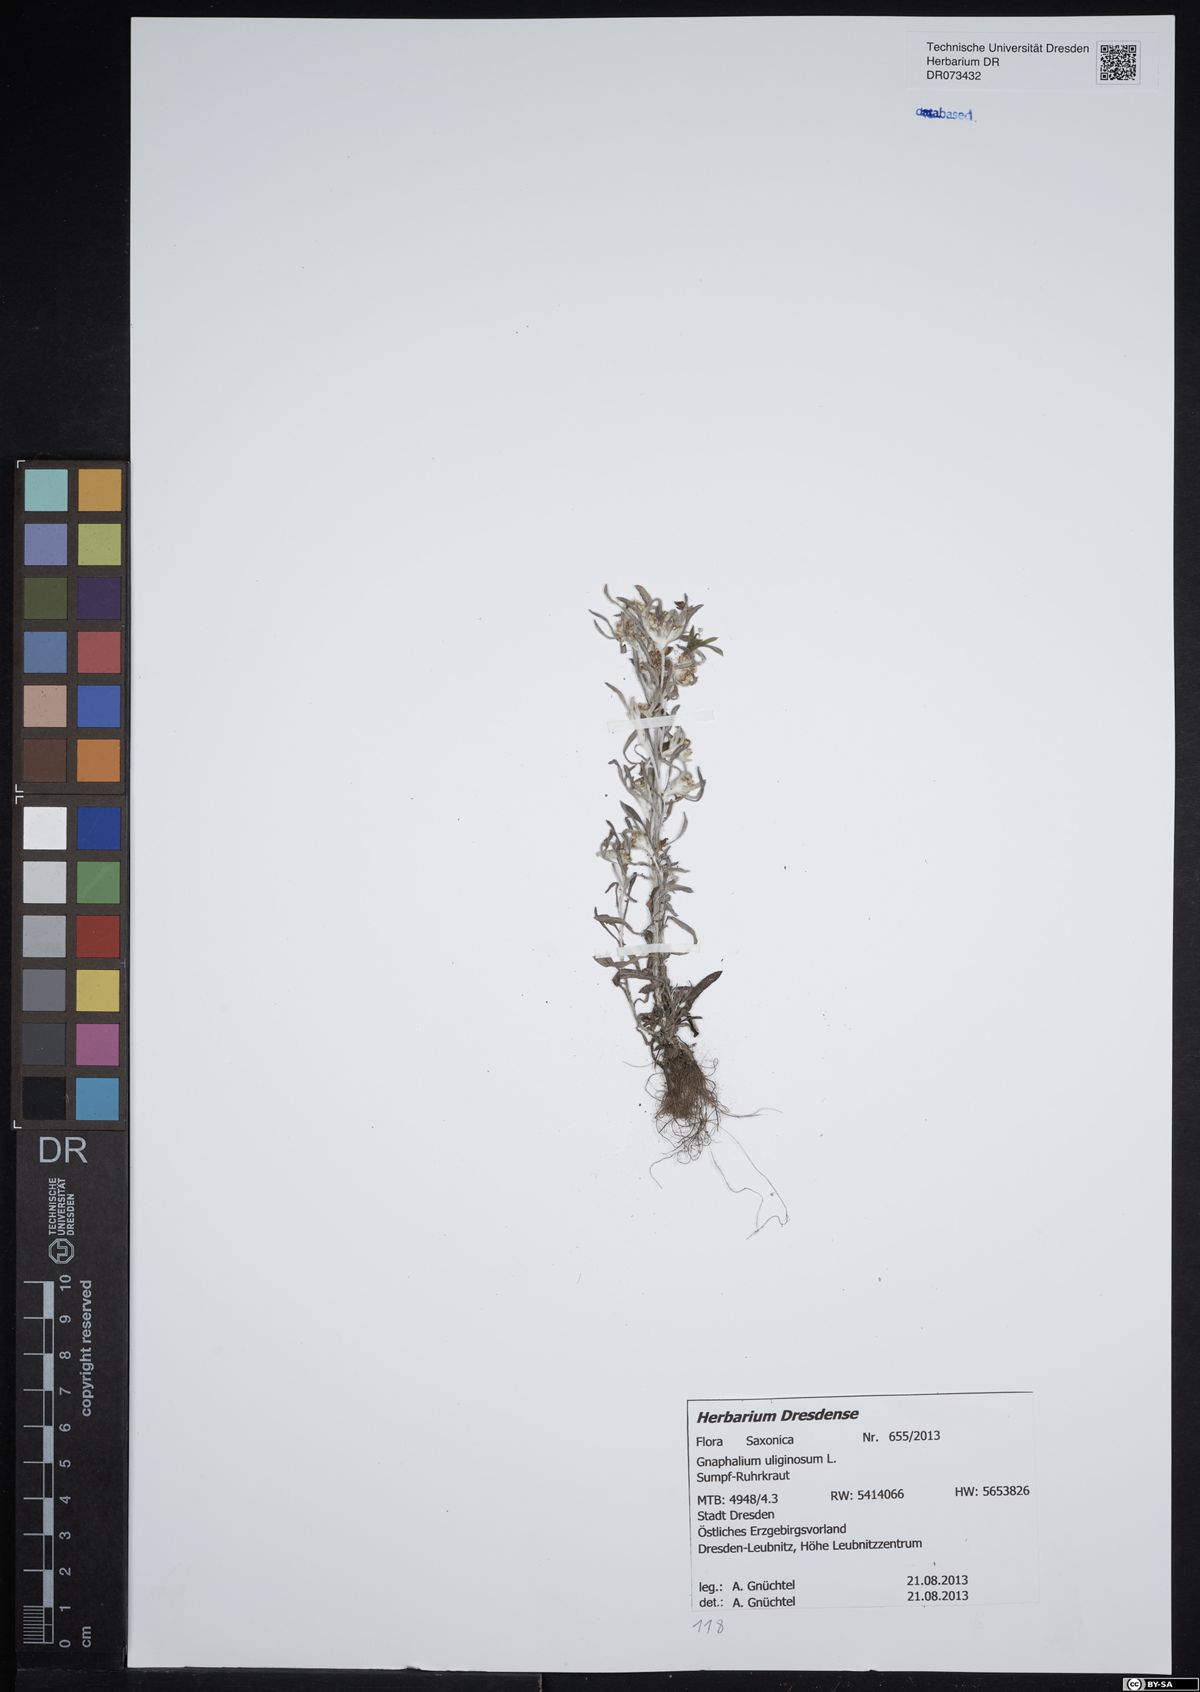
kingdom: Plantae
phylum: Tracheophyta
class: Magnoliopsida
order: Asterales
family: Asteraceae
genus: Gnaphalium
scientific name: Gnaphalium uliginosum
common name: Marsh cudweed
